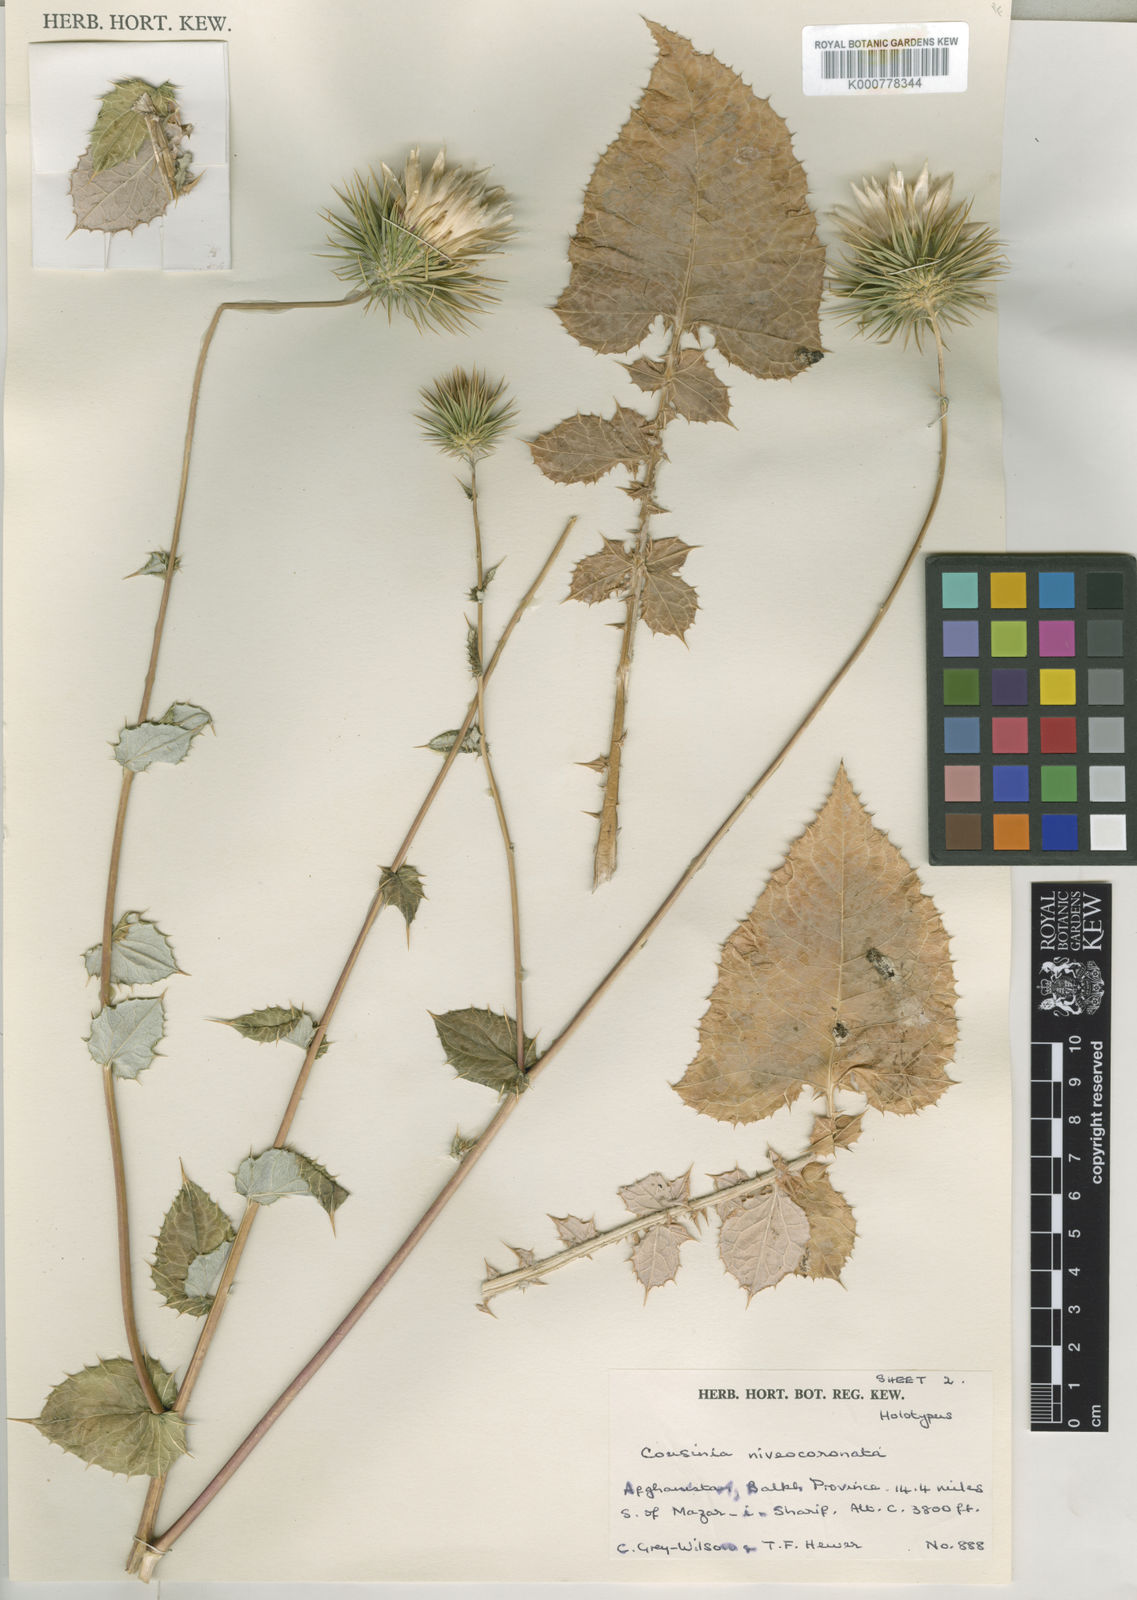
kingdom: Plantae
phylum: Tracheophyta
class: Magnoliopsida
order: Asterales
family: Asteraceae
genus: Cousinia
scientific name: Cousinia niveocoronata
